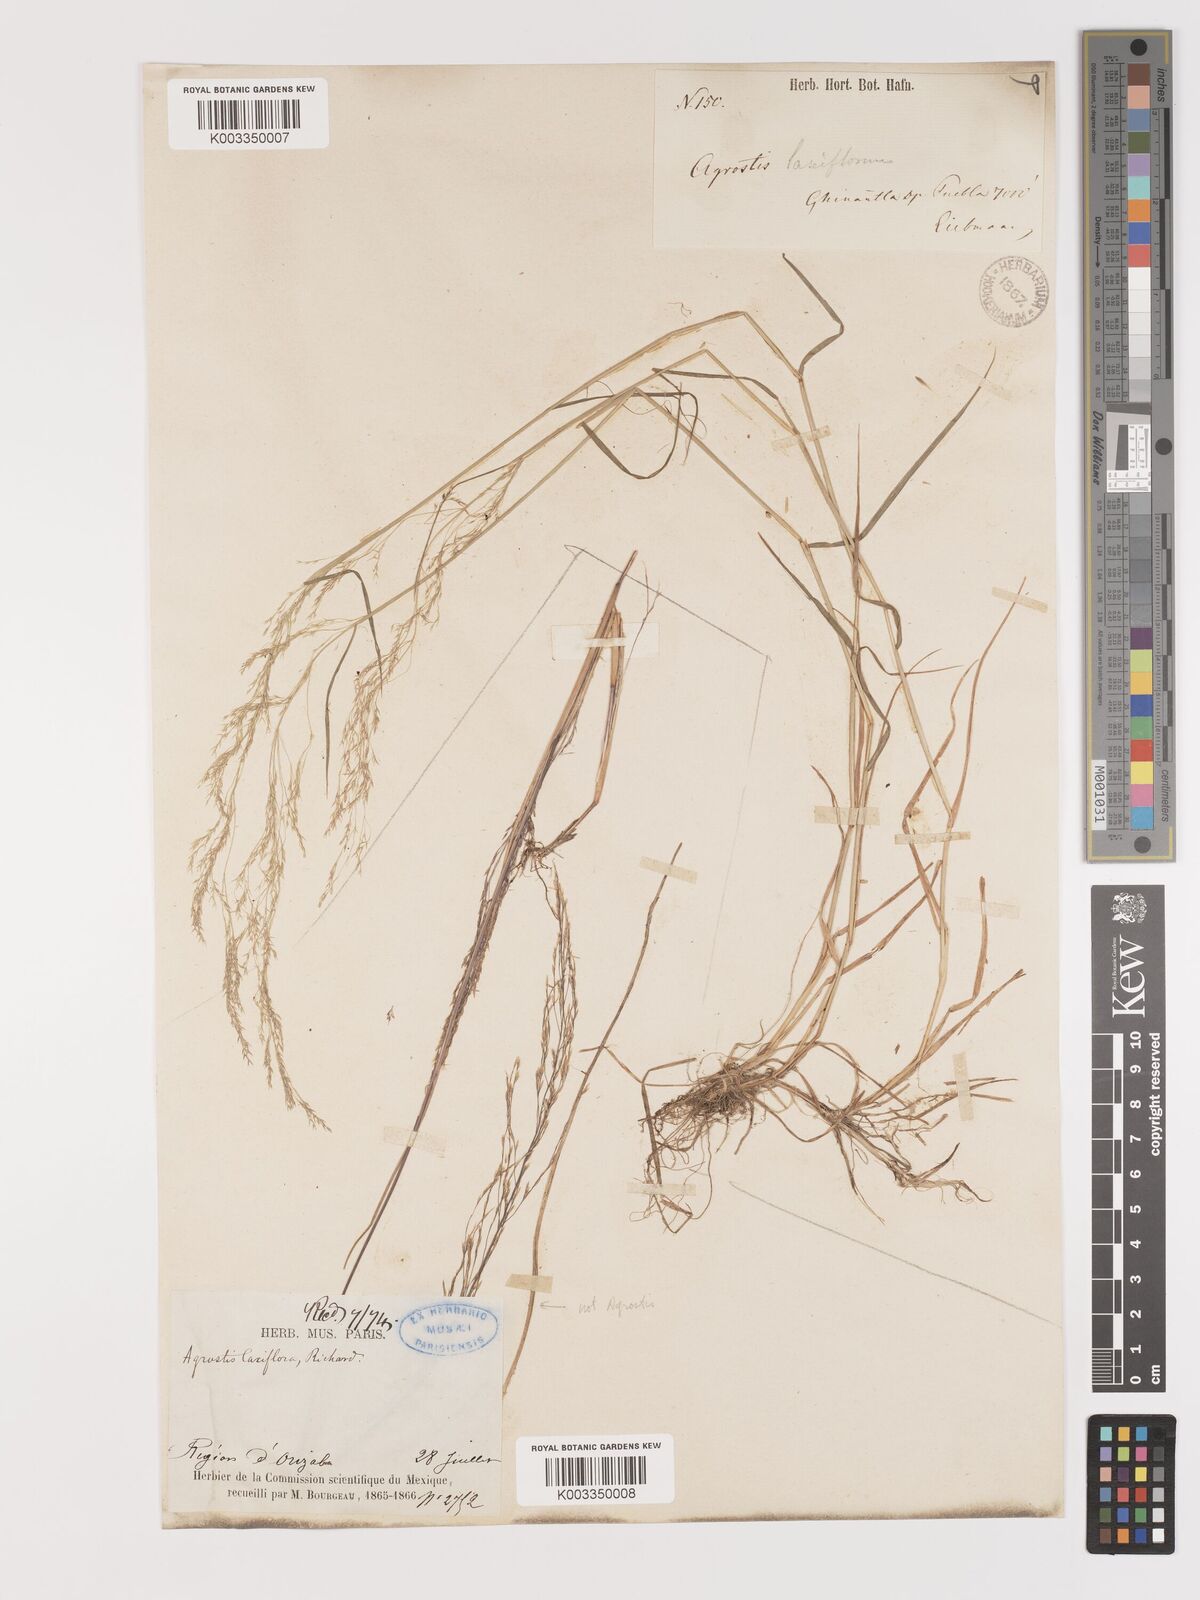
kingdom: Plantae
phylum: Tracheophyta
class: Liliopsida
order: Poales
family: Poaceae
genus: Agrostis
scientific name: Agrostis hyemalis
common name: Small bent
